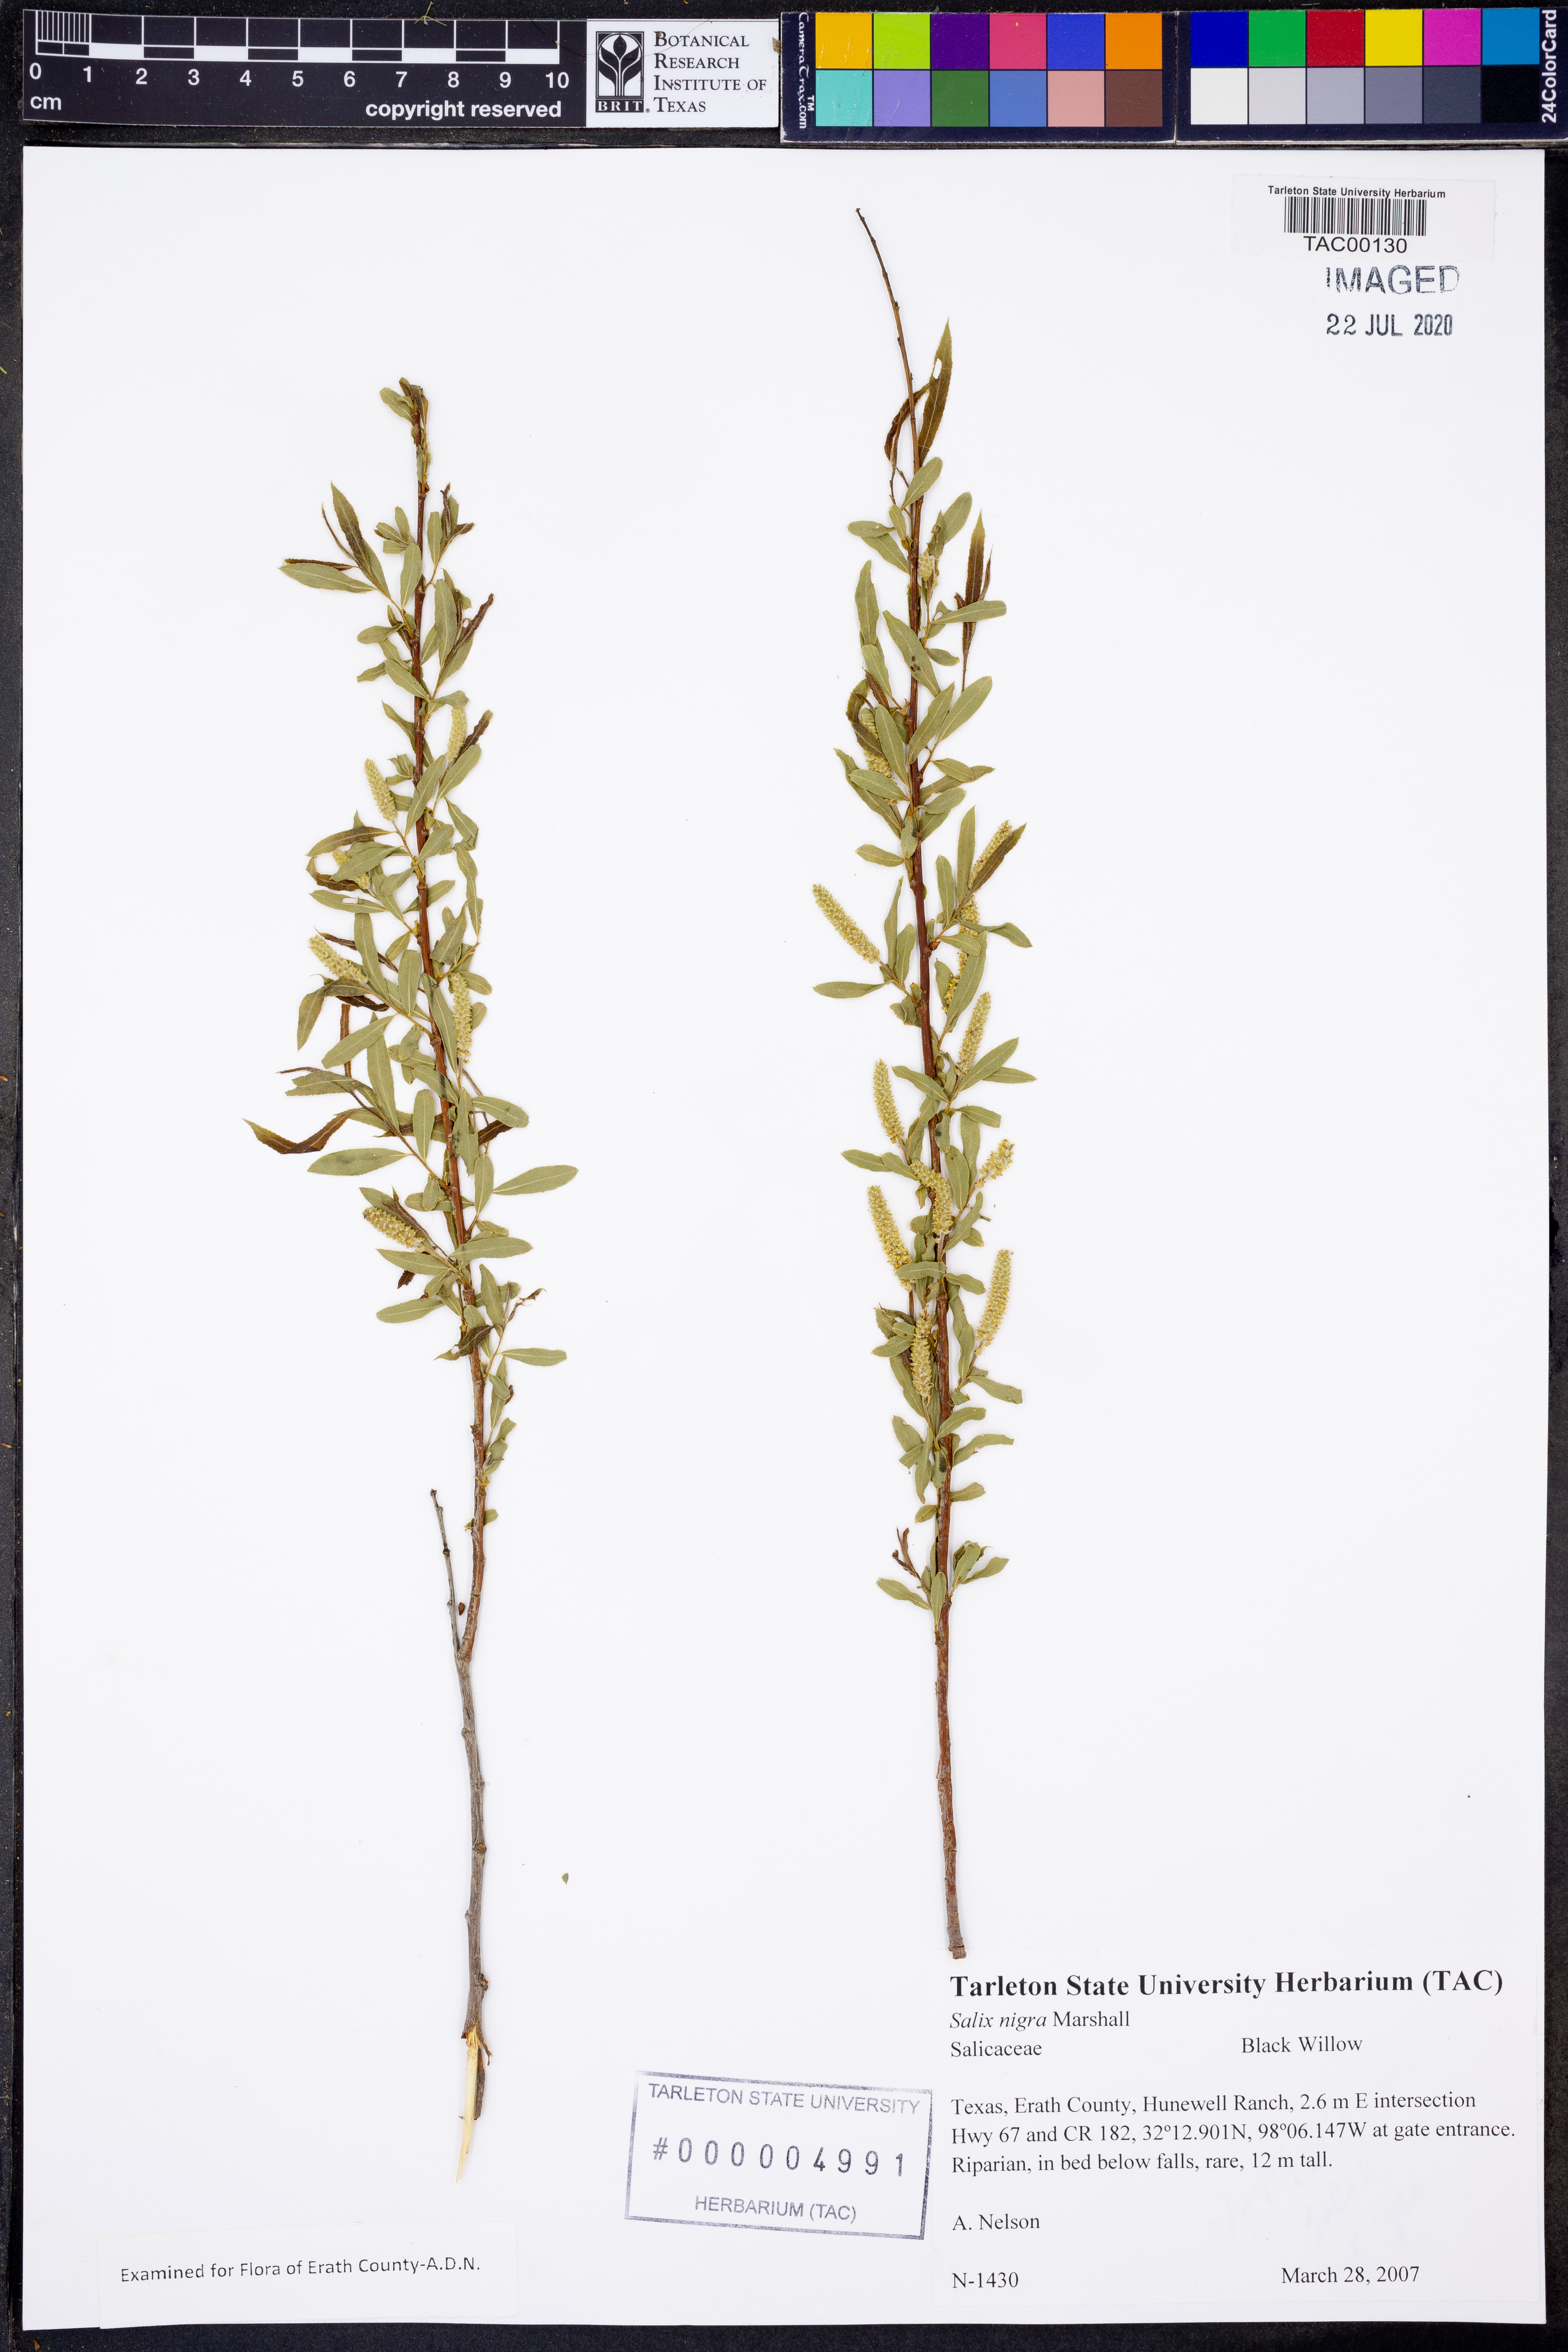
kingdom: Plantae
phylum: Tracheophyta
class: Magnoliopsida
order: Malpighiales
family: Salicaceae
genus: Salix
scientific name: Salix nigra
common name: Black willow
